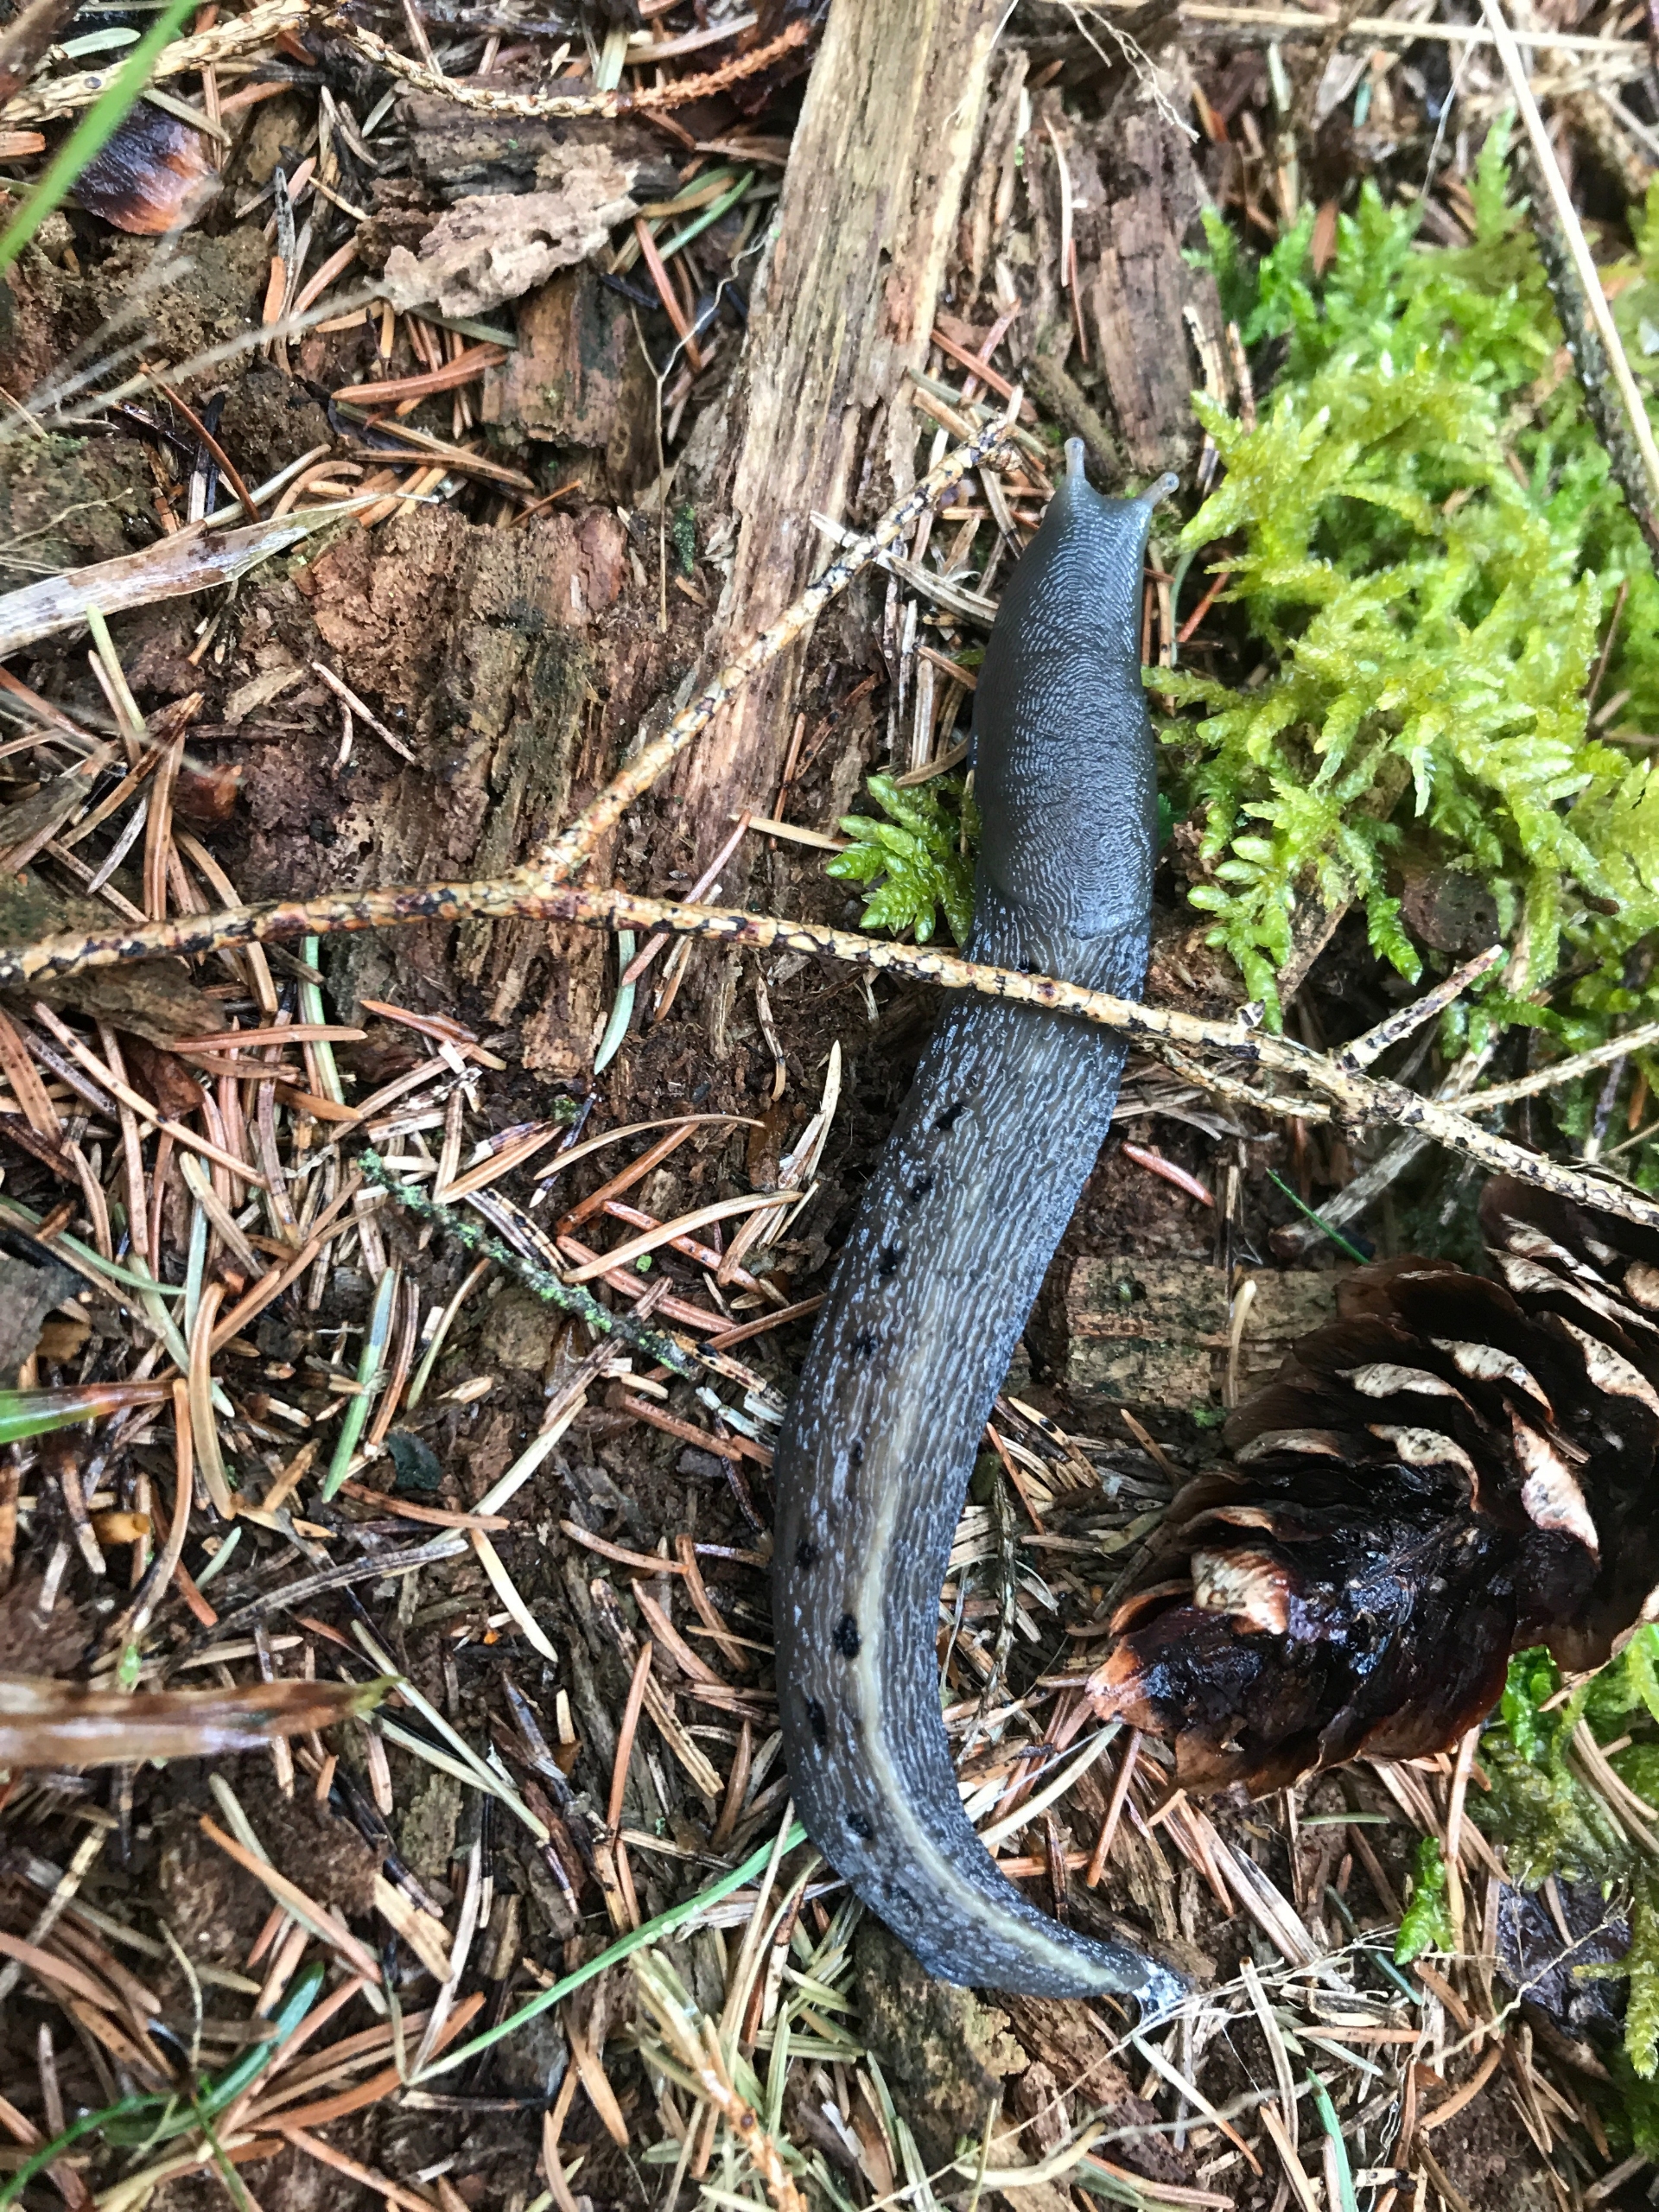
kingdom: Animalia
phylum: Mollusca
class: Gastropoda
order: Stylommatophora
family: Limacidae
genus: Limax
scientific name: Limax maximus
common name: Pantersnegl
